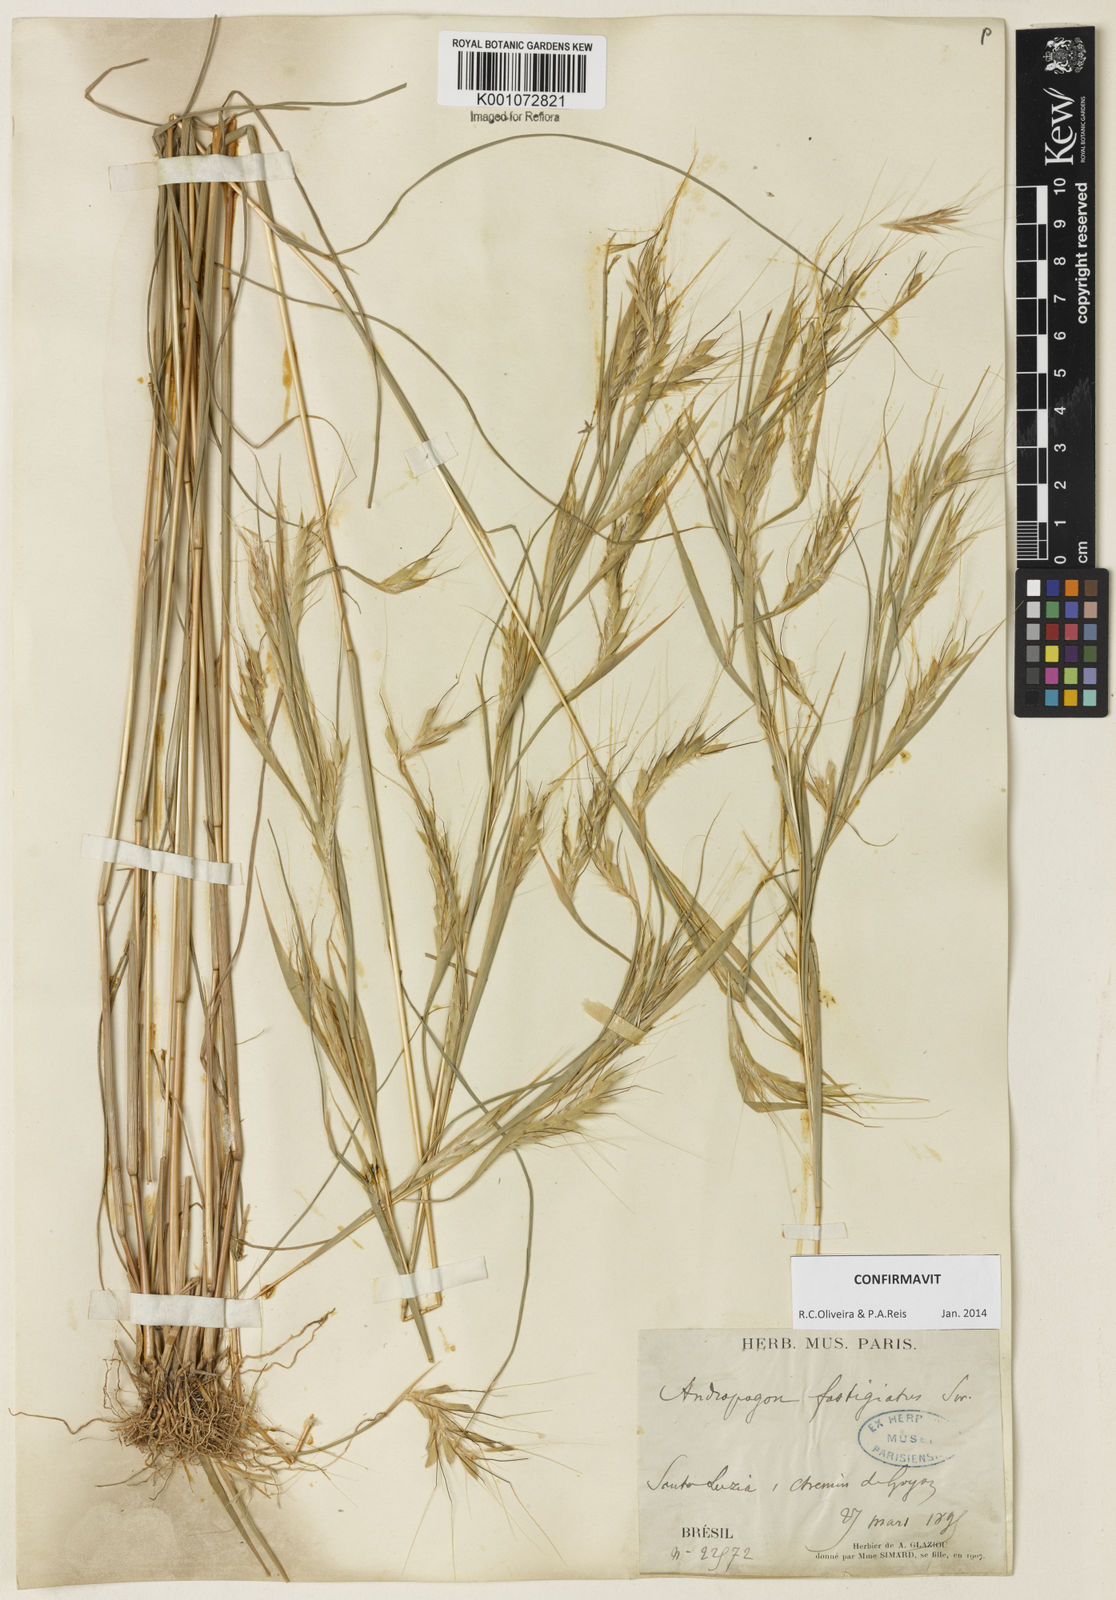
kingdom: Plantae
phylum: Tracheophyta
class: Liliopsida
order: Poales
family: Poaceae
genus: Diectomis
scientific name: Diectomis fastigiata
